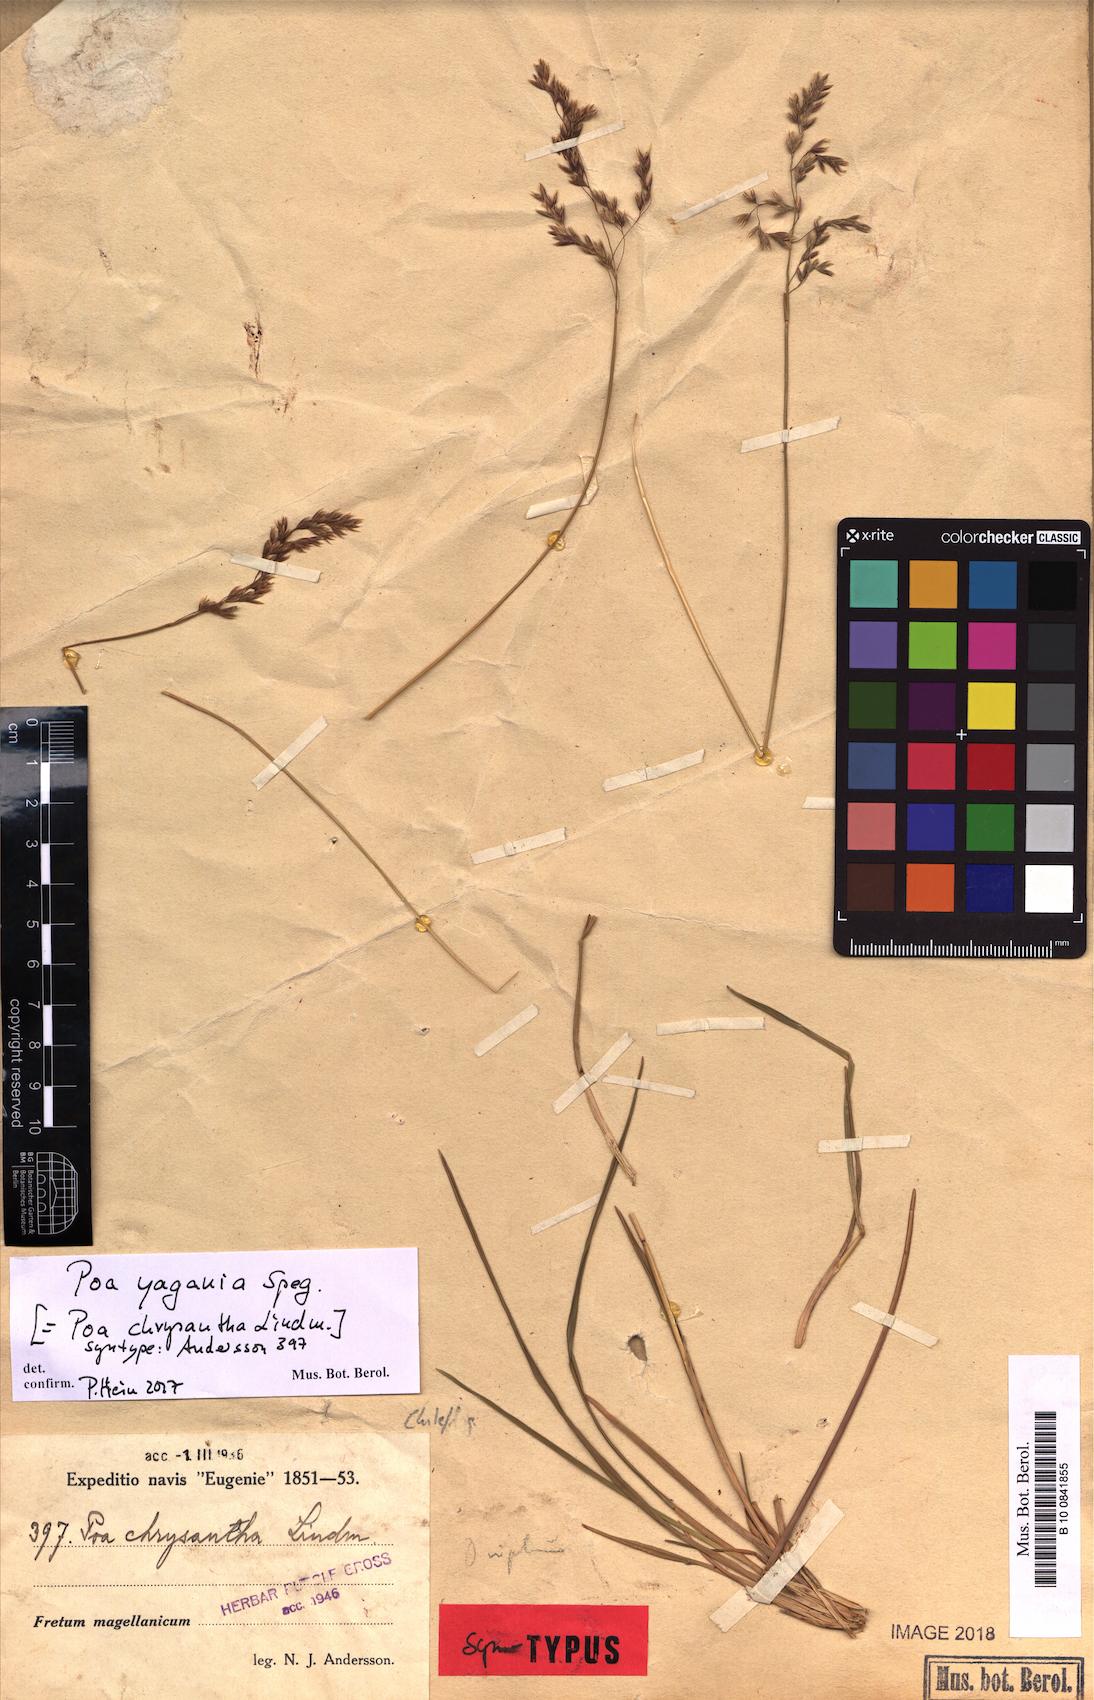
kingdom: Plantae
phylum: Tracheophyta
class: Liliopsida
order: Poales
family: Poaceae
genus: Poa
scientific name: Poa yaganica
